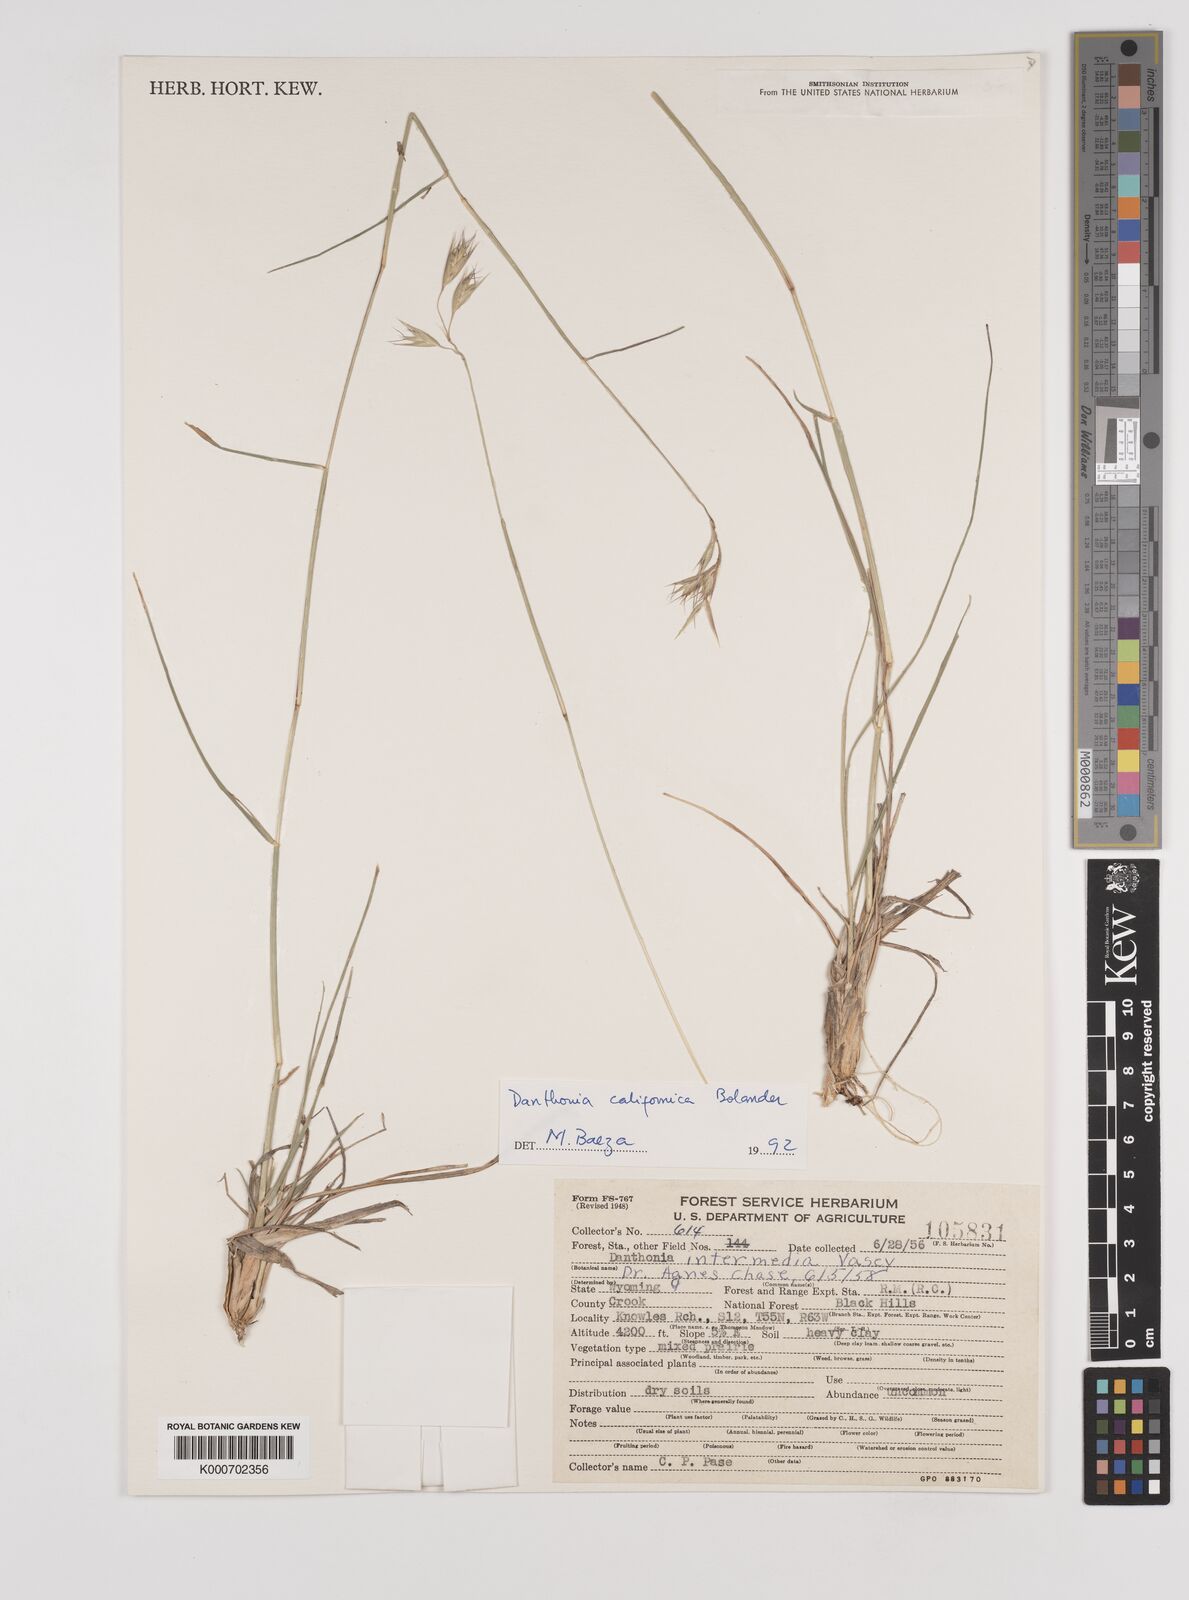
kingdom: Plantae
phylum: Tracheophyta
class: Liliopsida
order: Poales
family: Poaceae
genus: Danthonia
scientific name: Danthonia californica
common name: California oat grass
